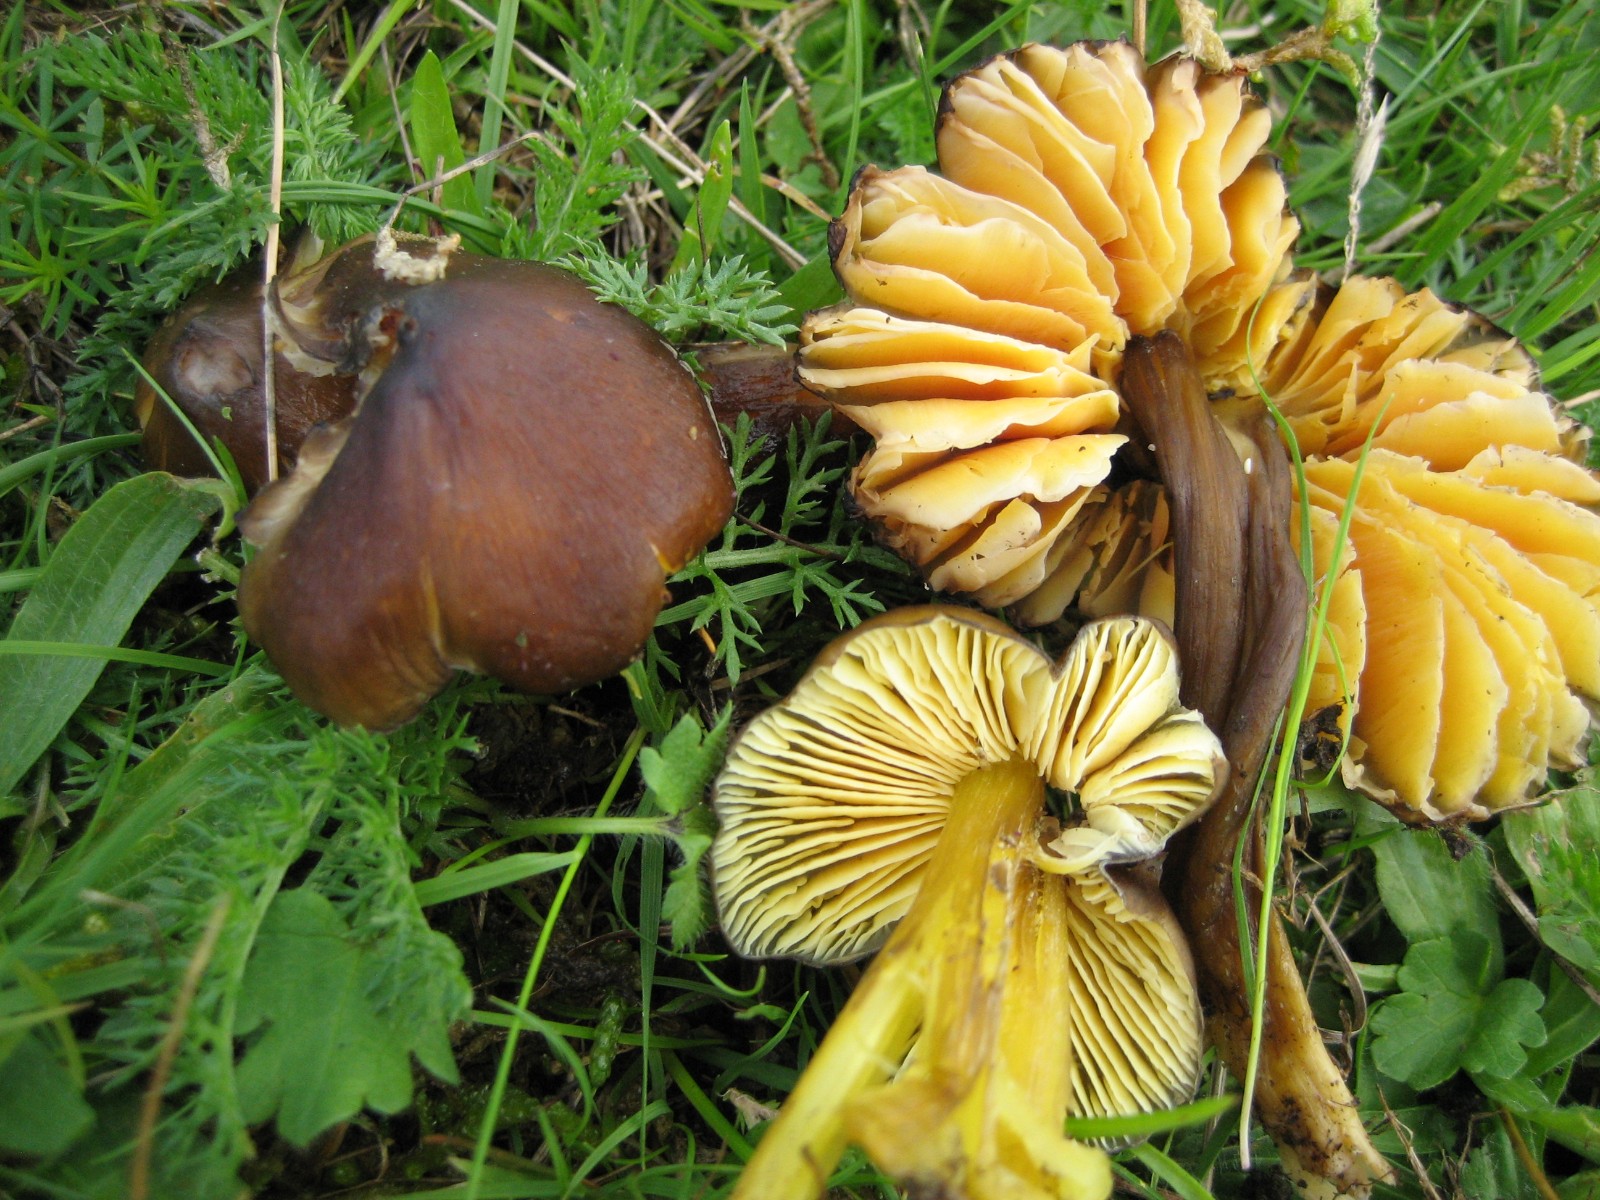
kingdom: Fungi
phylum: Basidiomycota
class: Agaricomycetes
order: Agaricales
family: Hygrophoraceae
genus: Hygrocybe
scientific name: Hygrocybe spadicea
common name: daddelbrun vokshat
